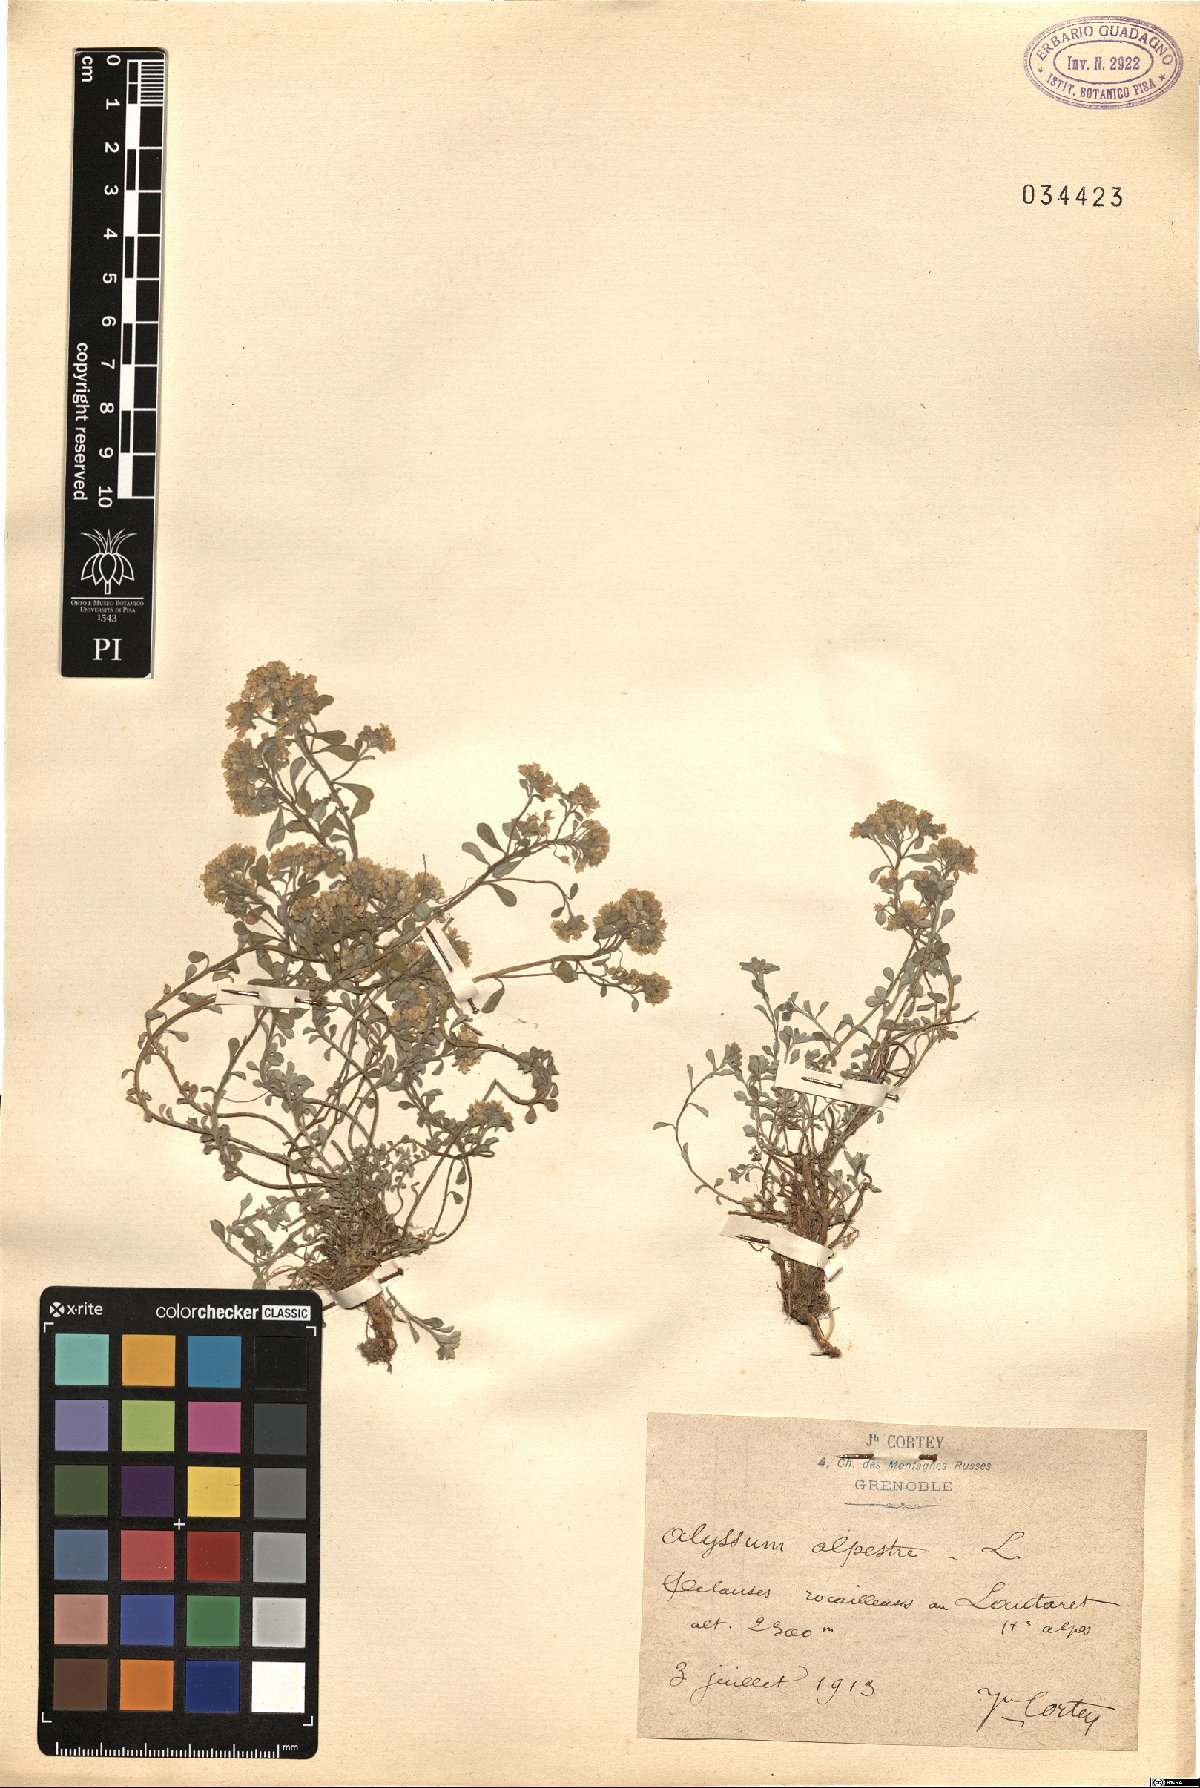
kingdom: Plantae
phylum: Tracheophyta
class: Magnoliopsida
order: Brassicales
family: Brassicaceae
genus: Odontarrhena
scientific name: Odontarrhena alpestris
